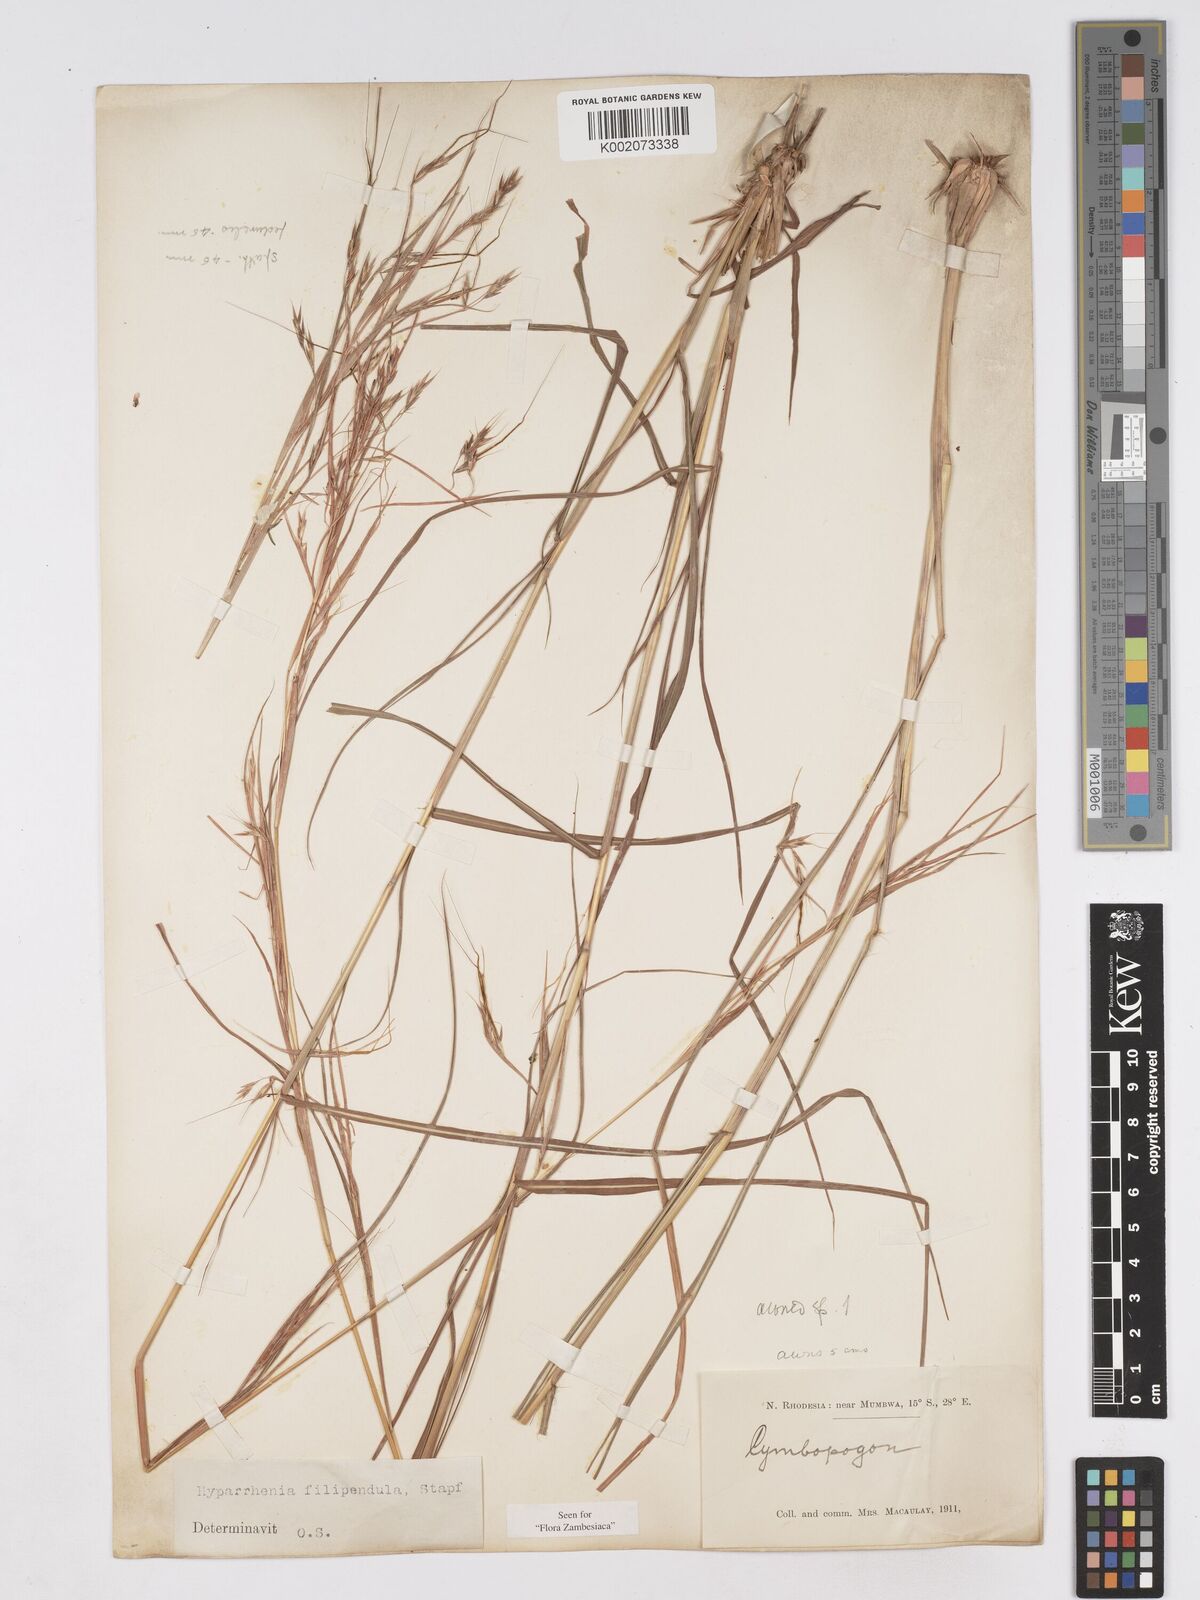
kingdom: Plantae
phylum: Tracheophyta
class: Liliopsida
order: Poales
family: Poaceae
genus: Hyparrhenia
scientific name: Hyparrhenia filipendula
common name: Tambookie grass
